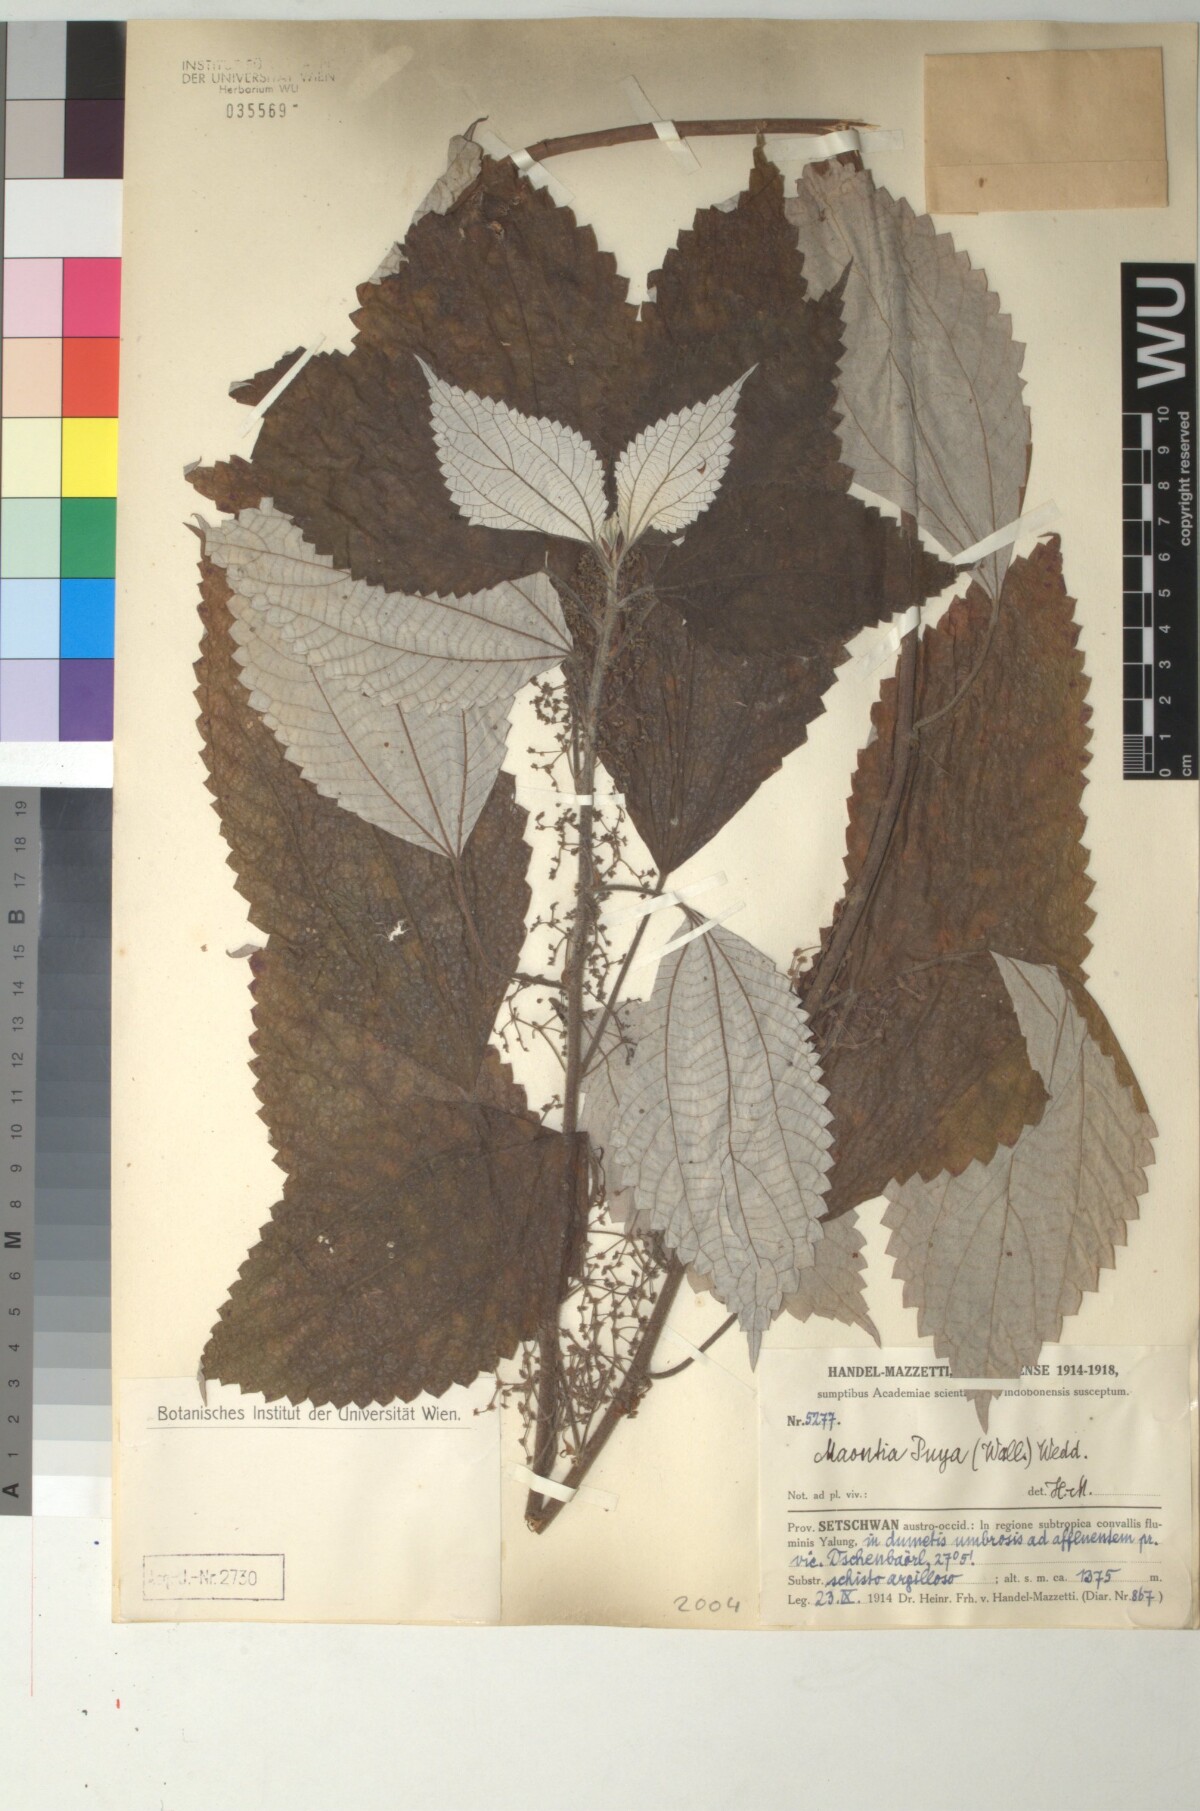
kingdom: Plantae
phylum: Tracheophyta
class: Magnoliopsida
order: Rosales
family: Urticaceae
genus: Leucosyke
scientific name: Leucosyke puya
